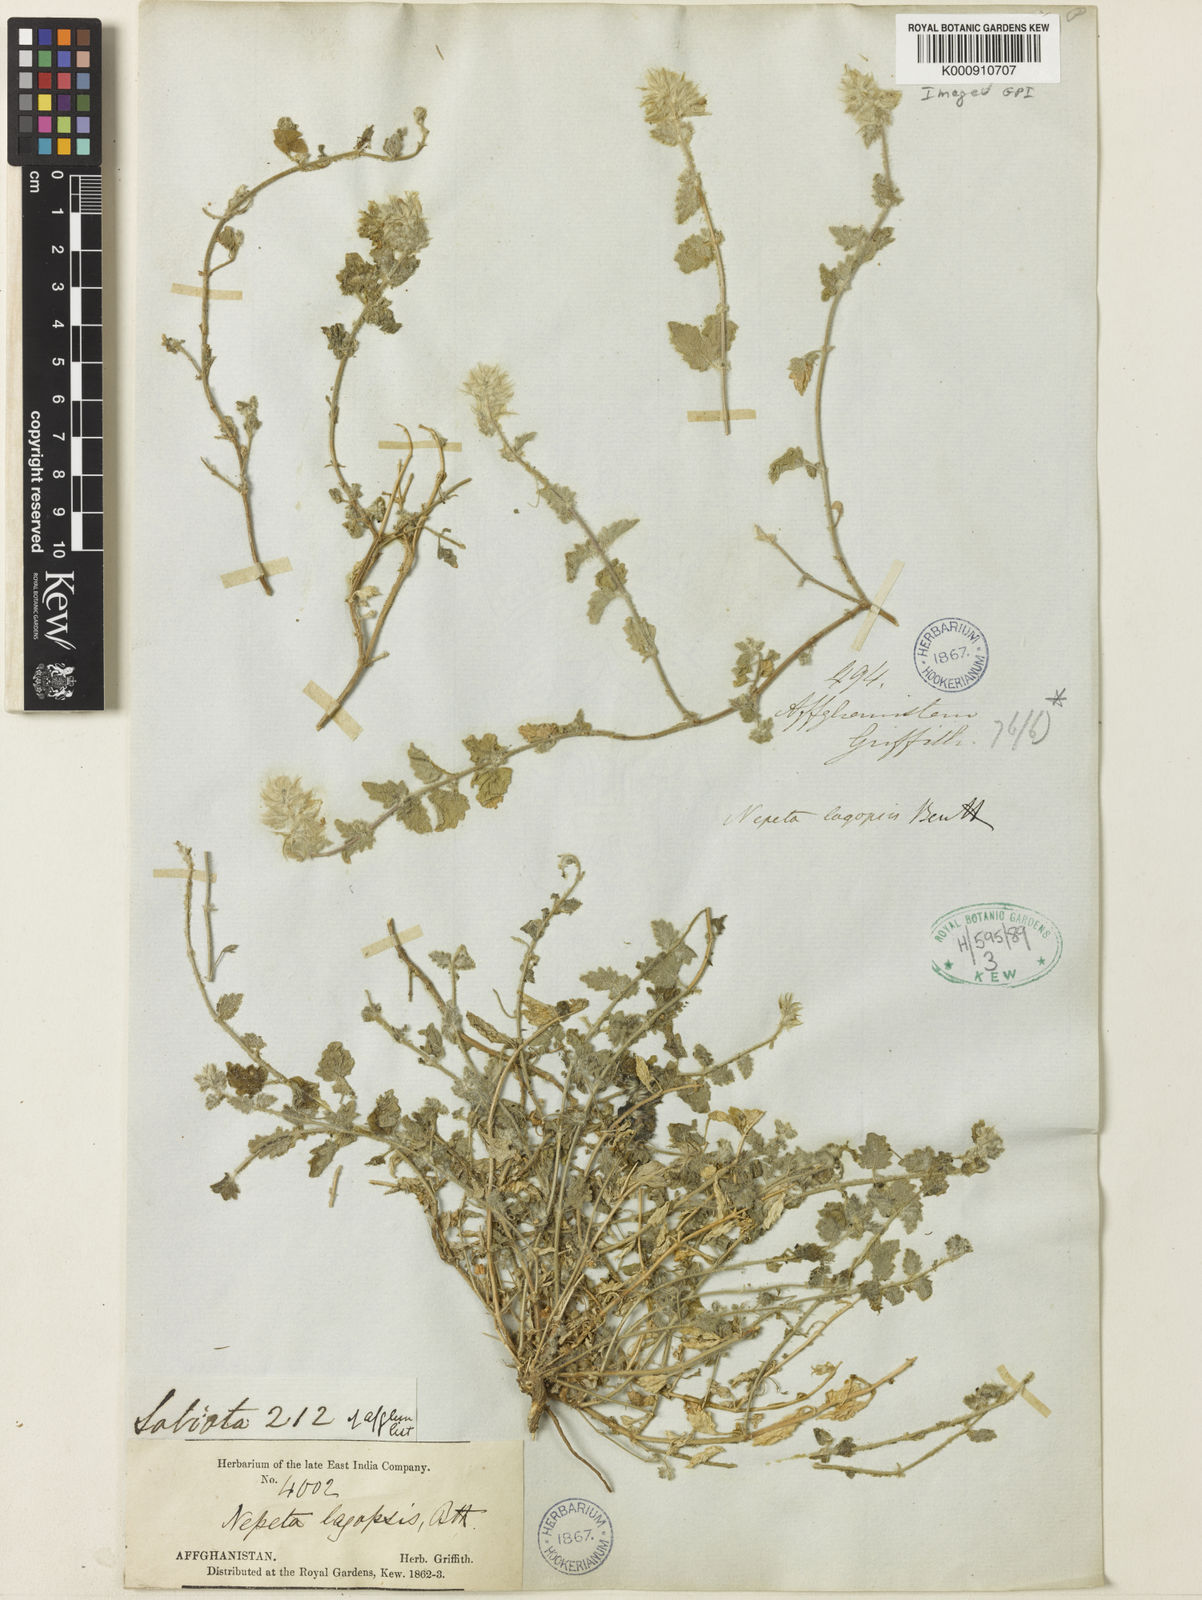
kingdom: Plantae
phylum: Tracheophyta
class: Magnoliopsida
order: Lamiales
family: Lamiaceae
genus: Nepeta
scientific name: Nepeta lagopsis
